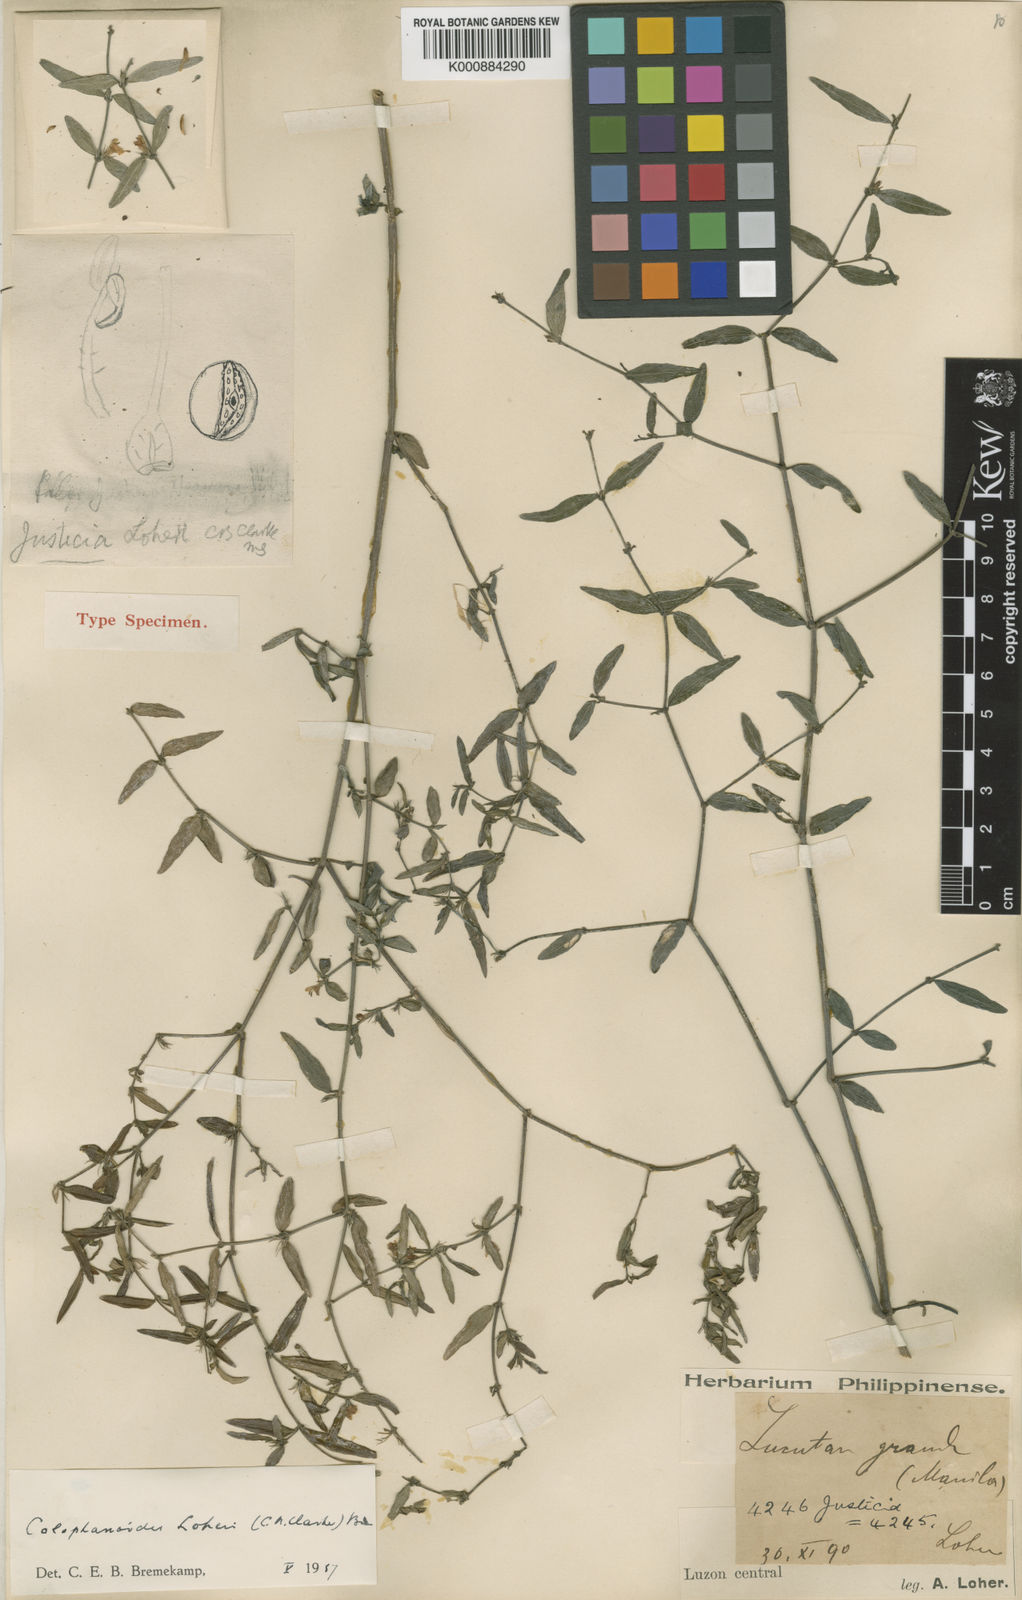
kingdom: Plantae
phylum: Tracheophyta
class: Magnoliopsida
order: Lamiales
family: Acanthaceae
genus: Justicia
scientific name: Justicia loheri
